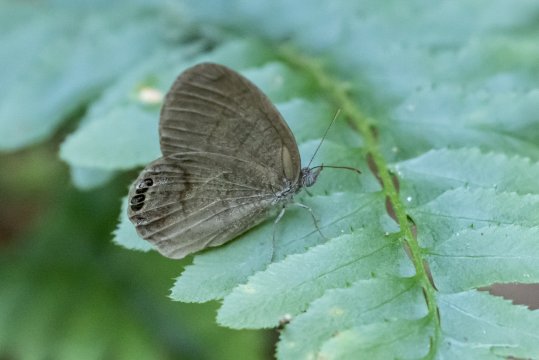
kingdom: Animalia
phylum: Arthropoda
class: Insecta
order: Lepidoptera
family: Nymphalidae
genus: Euptychia
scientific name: Euptychia cornelius
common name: Gemmed Satyr
